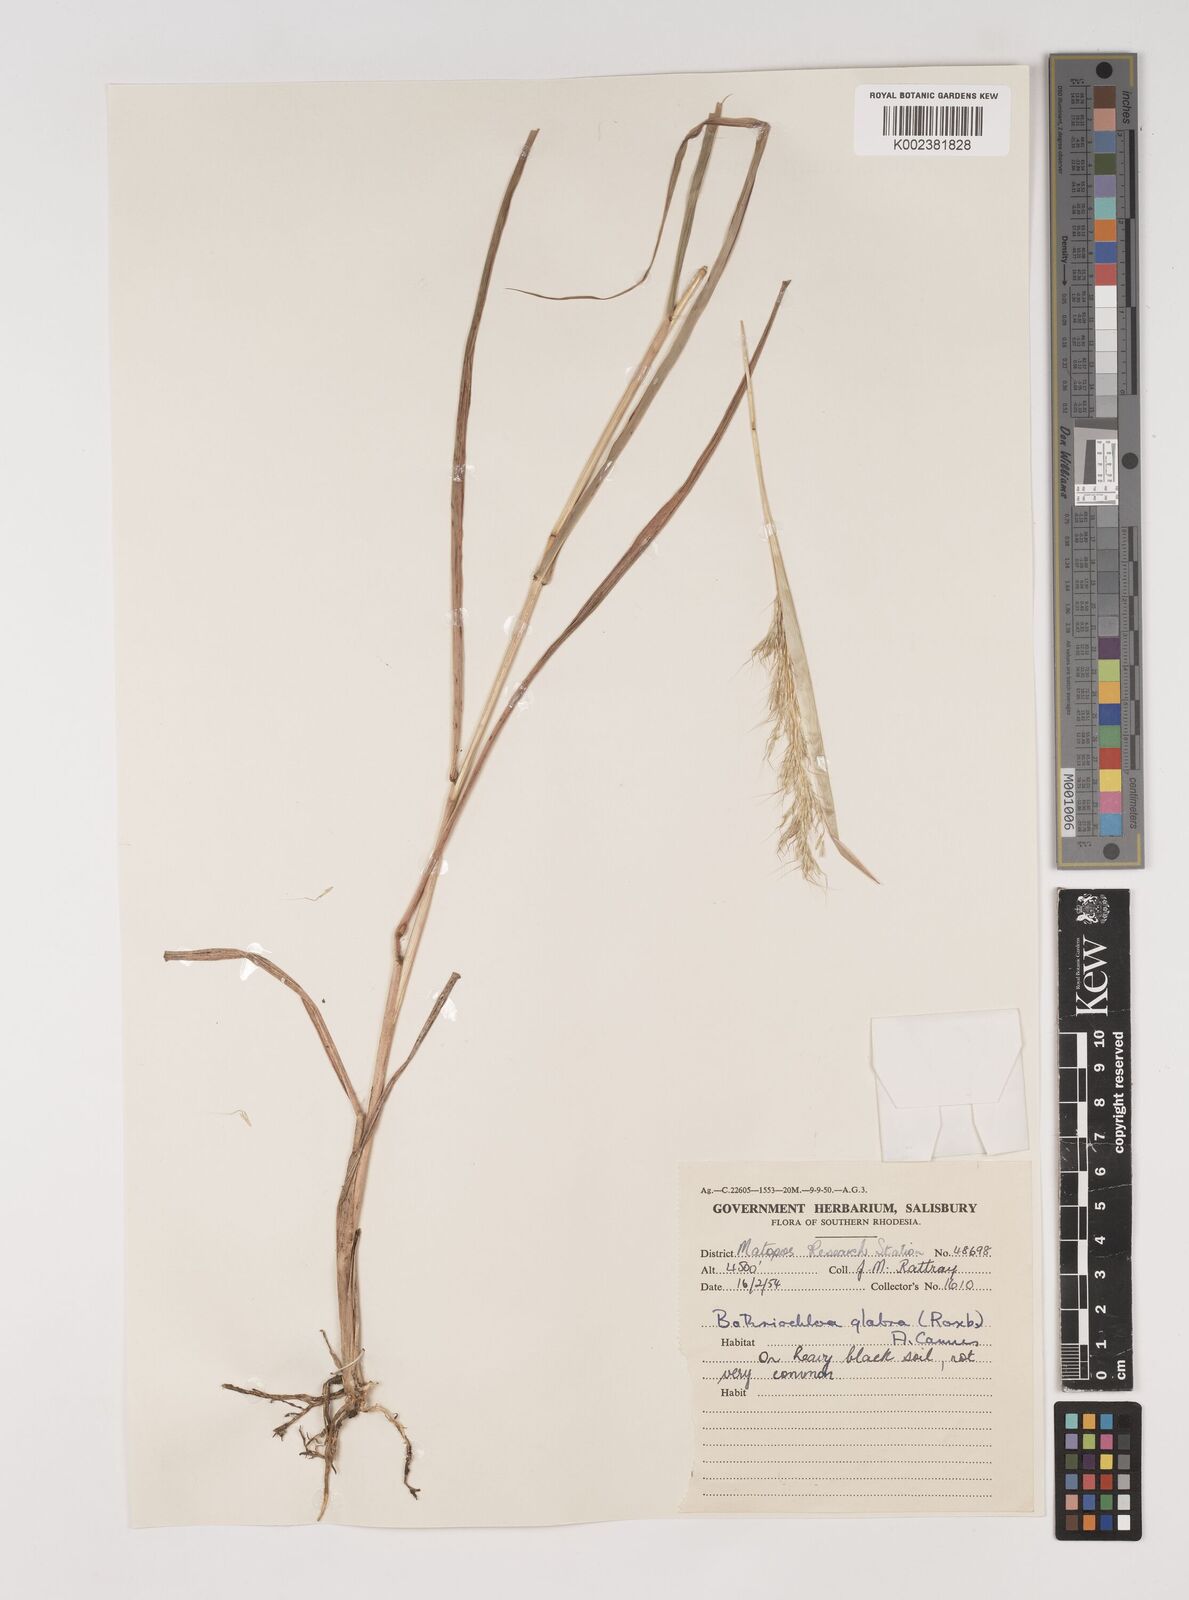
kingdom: Plantae
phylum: Tracheophyta
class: Liliopsida
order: Poales
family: Poaceae
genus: Bothriochloa
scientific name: Bothriochloa bladhii
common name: Caucasian bluestem
